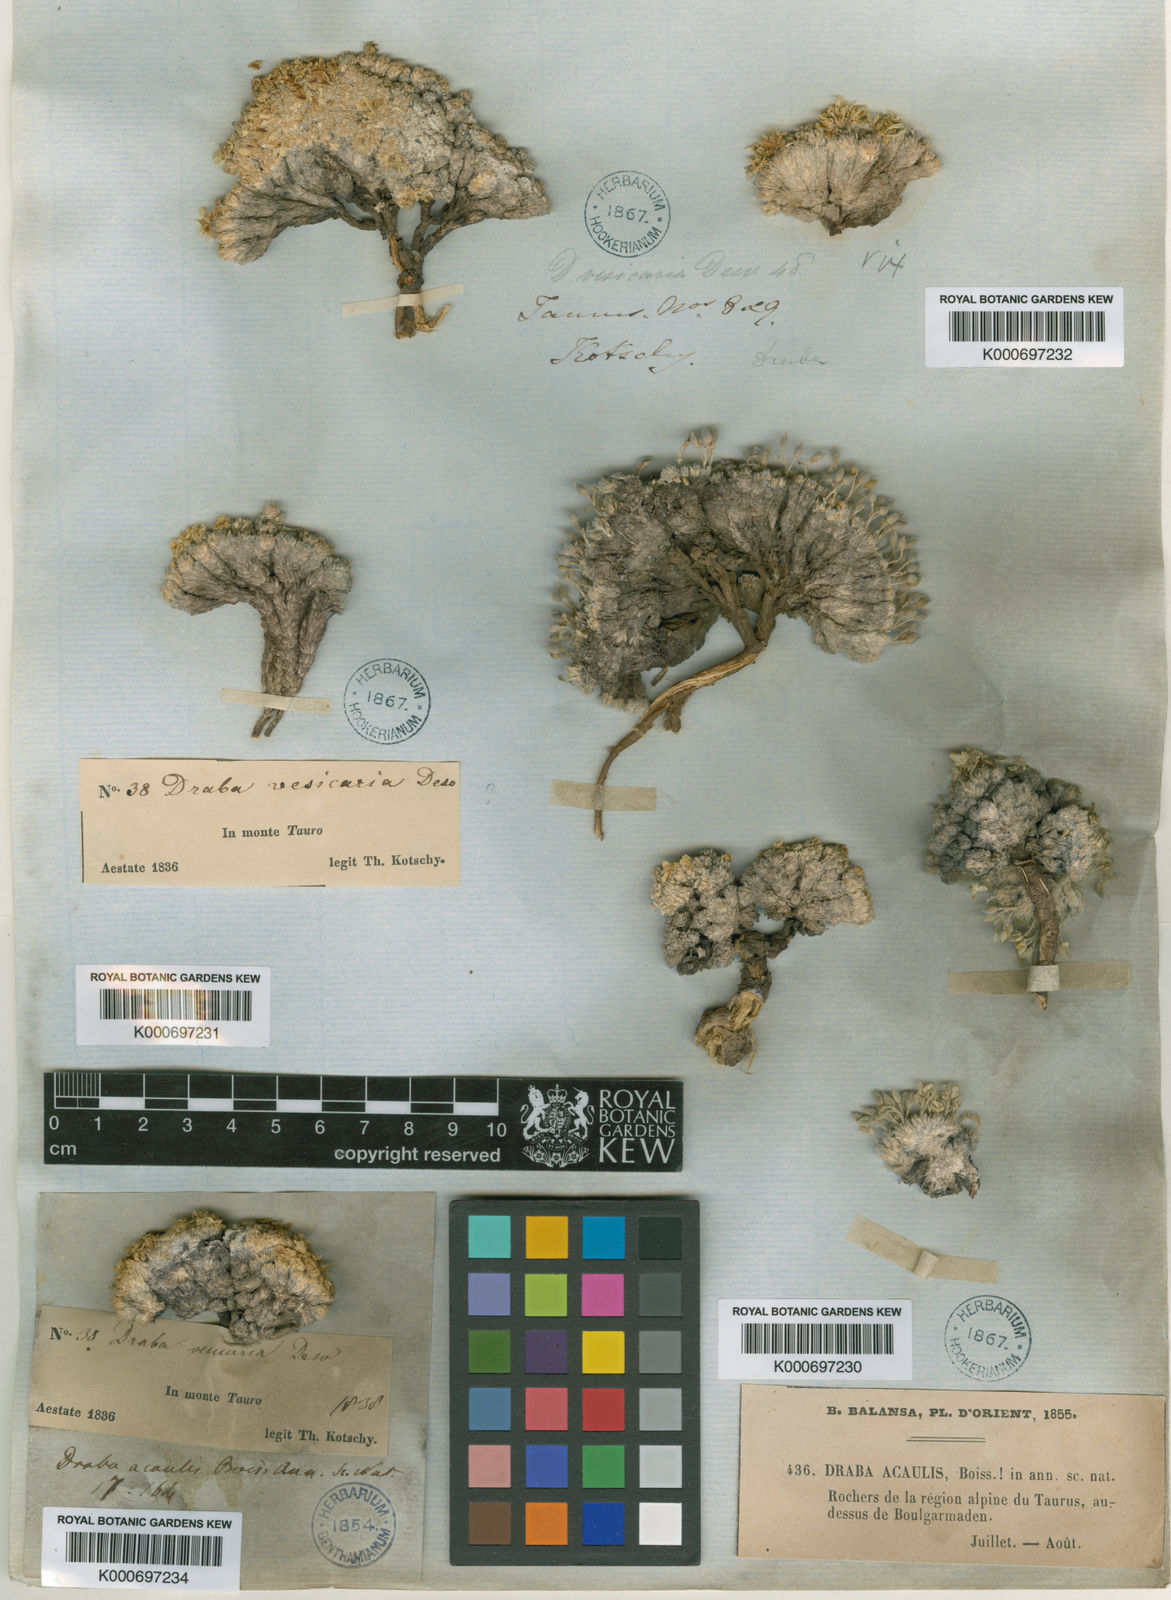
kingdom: Plantae
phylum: Tracheophyta
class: Magnoliopsida
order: Brassicales
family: Brassicaceae
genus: Draba
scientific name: Draba acaulis
